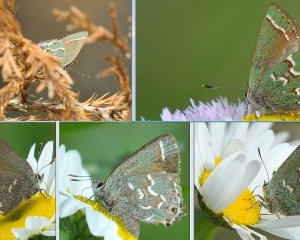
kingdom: Animalia
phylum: Arthropoda
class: Insecta
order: Lepidoptera
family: Lycaenidae
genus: Mitoura
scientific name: Mitoura gryneus
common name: Juniper Hairstreak
